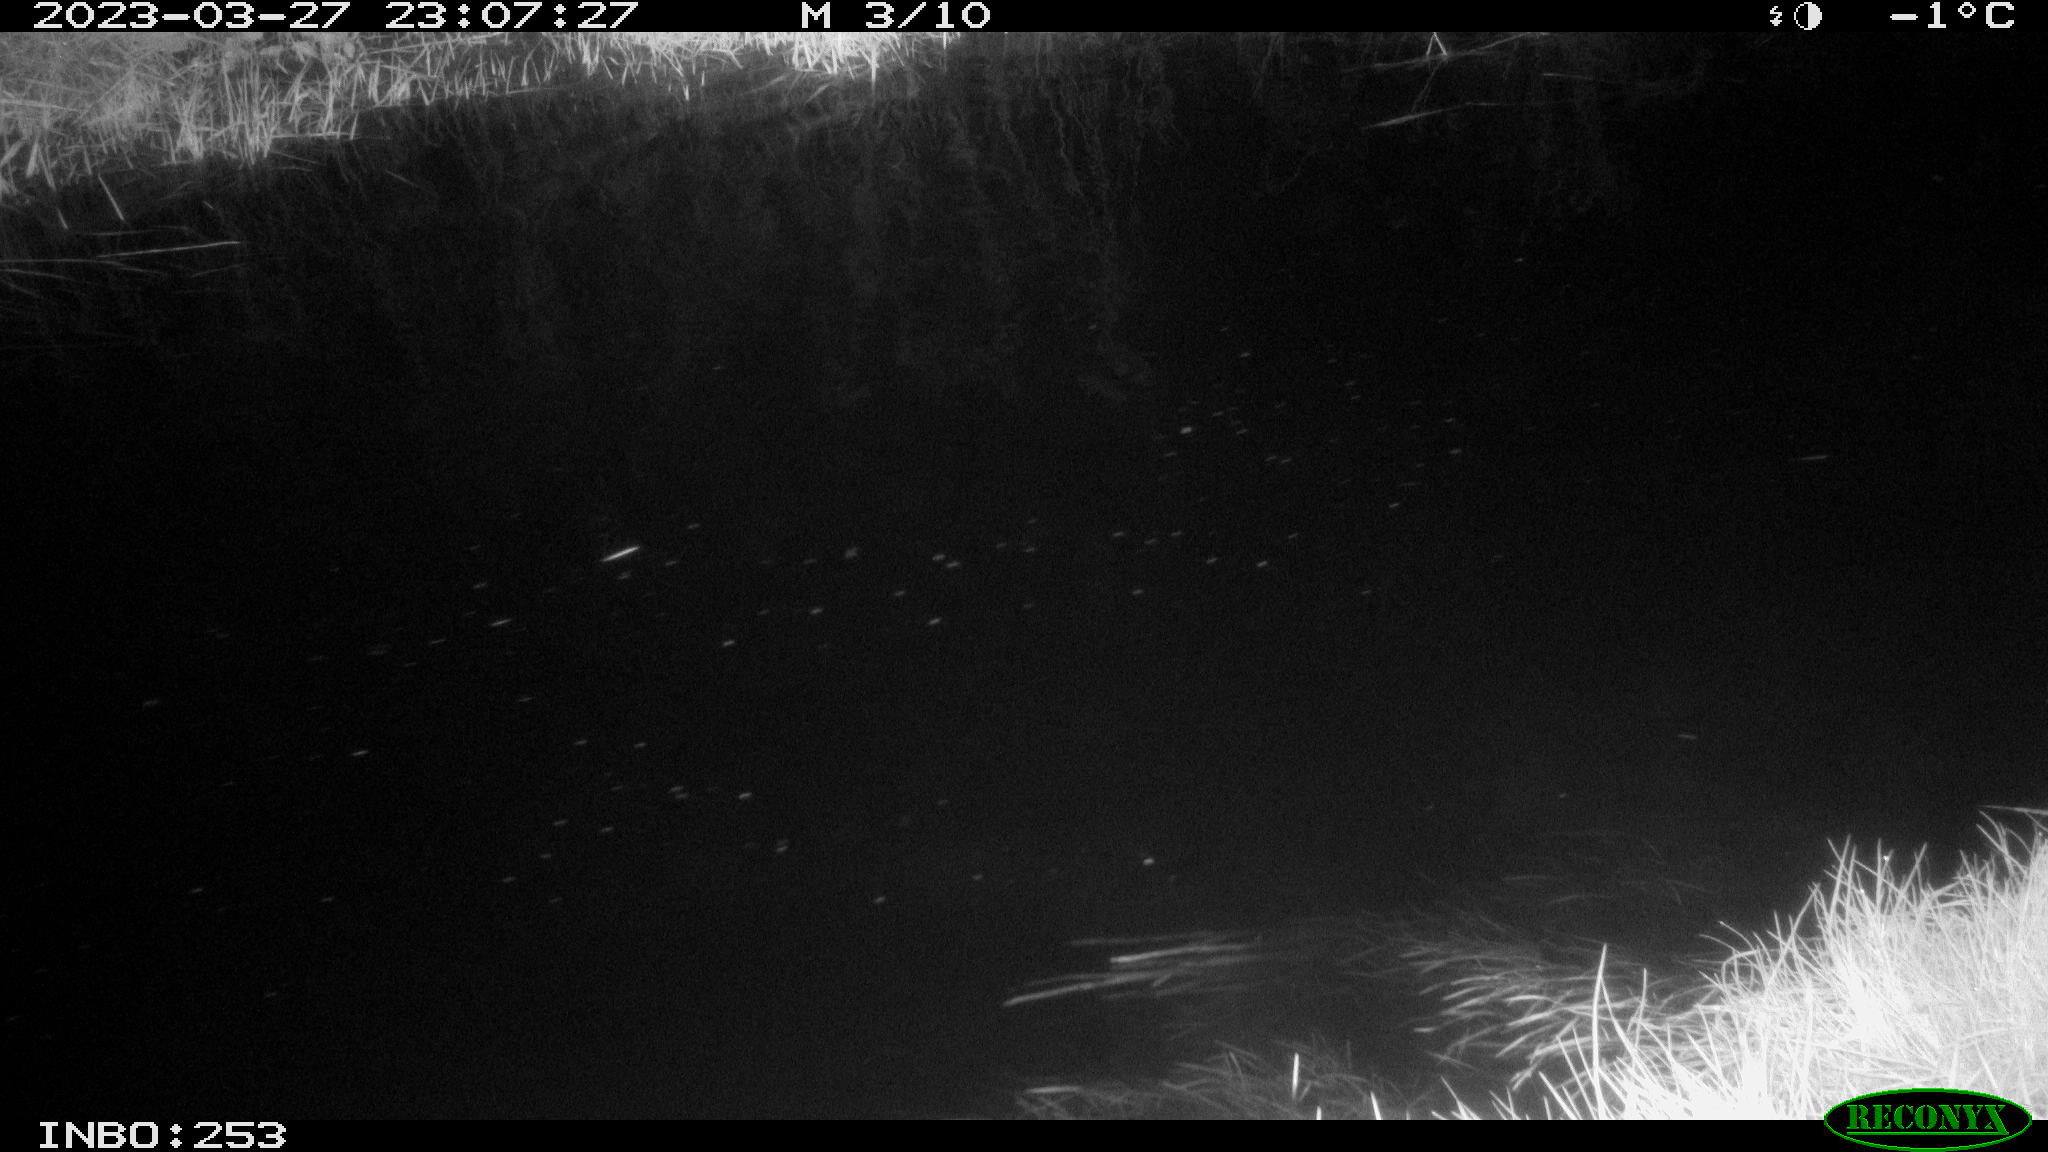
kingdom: Animalia
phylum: Chordata
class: Aves
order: Anseriformes
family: Anatidae
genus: Anas
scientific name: Anas
